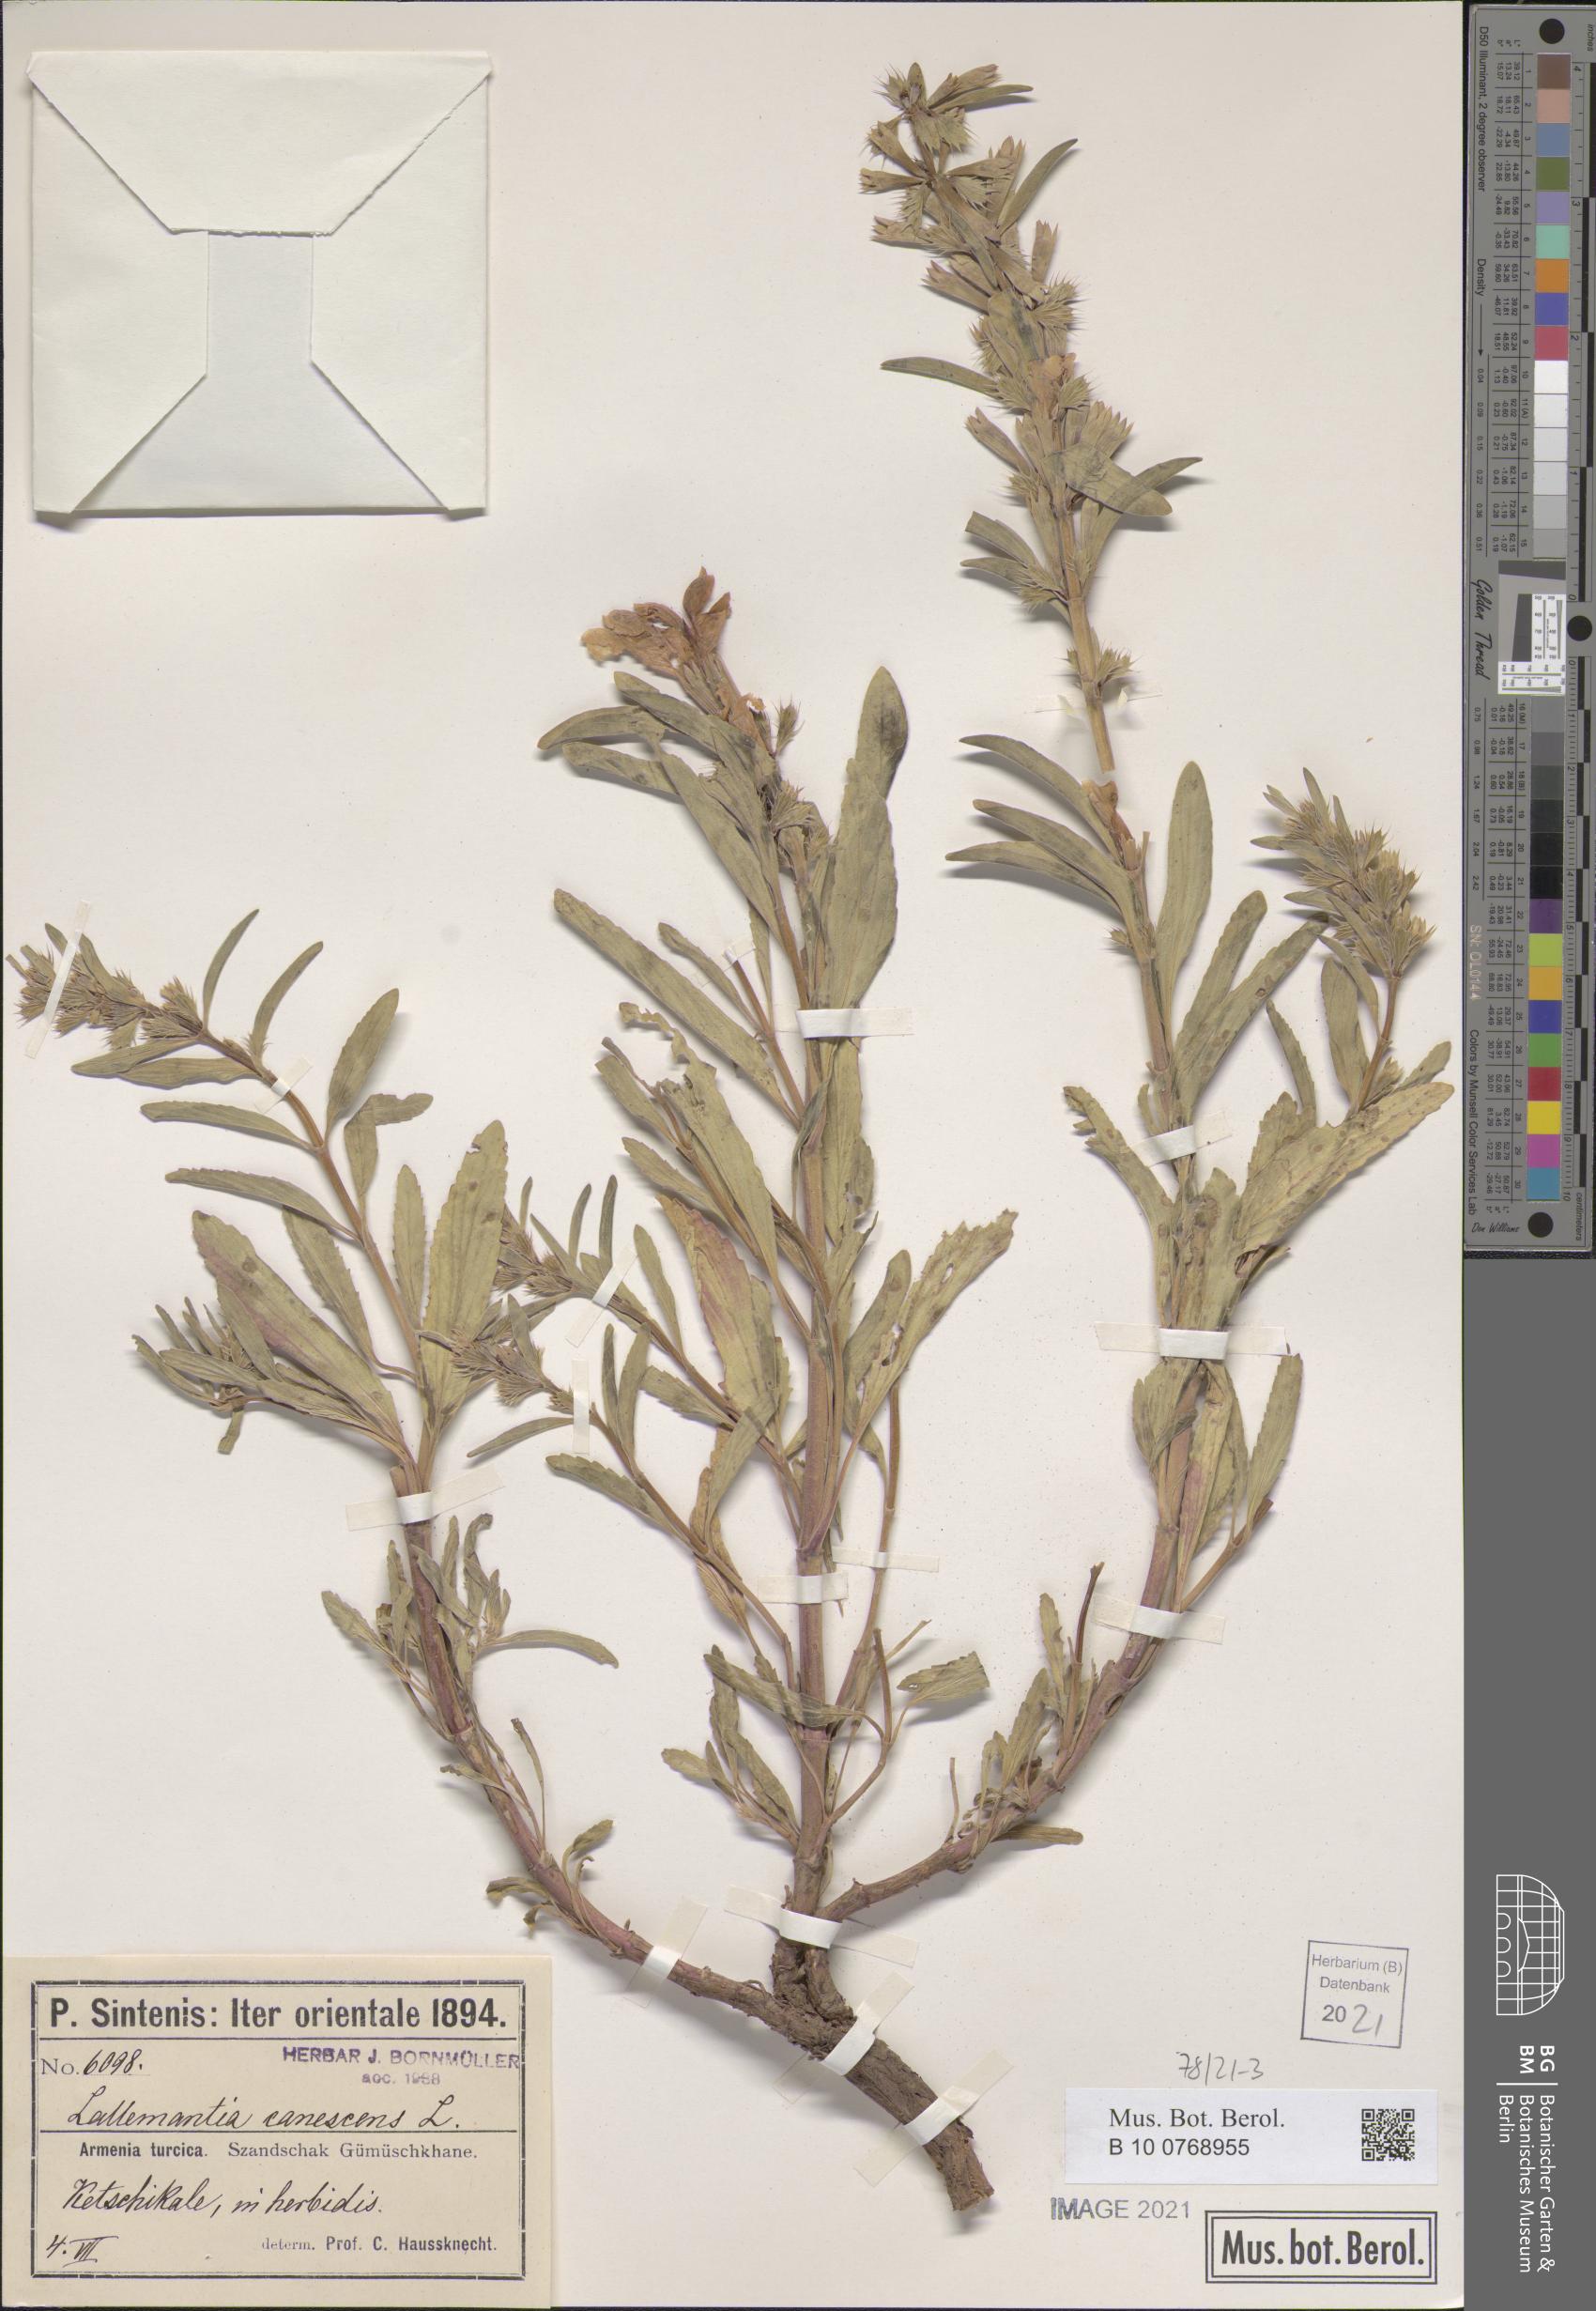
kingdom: Plantae
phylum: Tracheophyta
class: Magnoliopsida
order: Lamiales
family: Lamiaceae
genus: Lallemantia
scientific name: Lallemantia canescens
